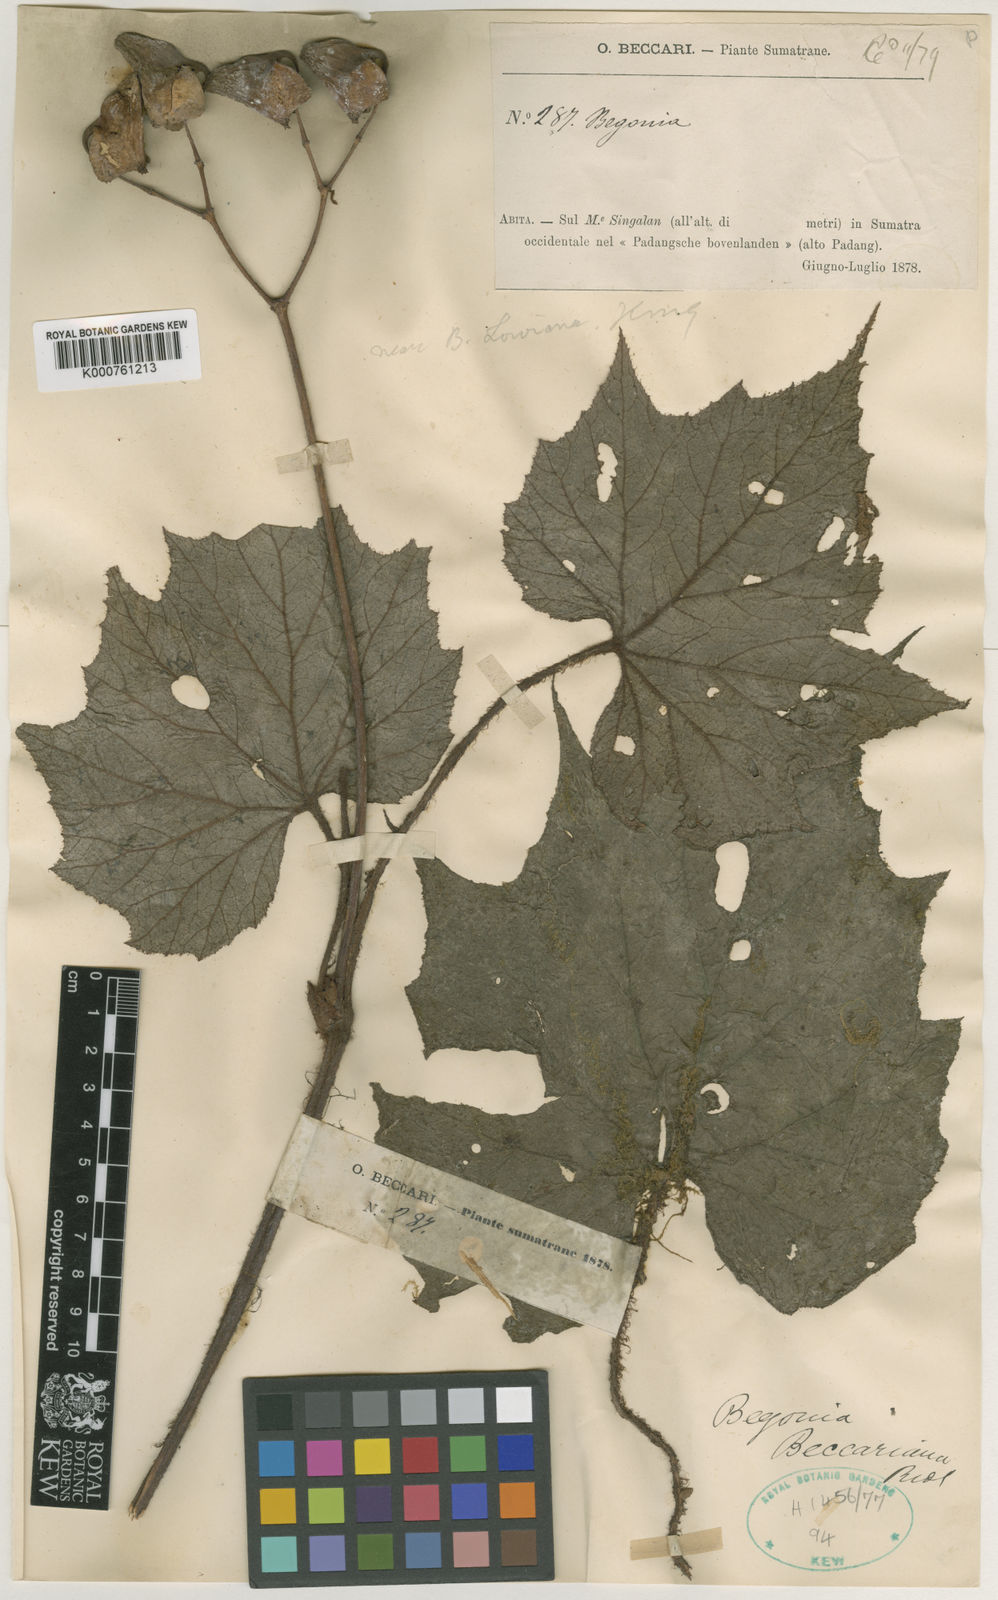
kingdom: Plantae
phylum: Tracheophyta
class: Magnoliopsida
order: Cucurbitales
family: Begoniaceae
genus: Begonia
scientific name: Begonia beccariana
